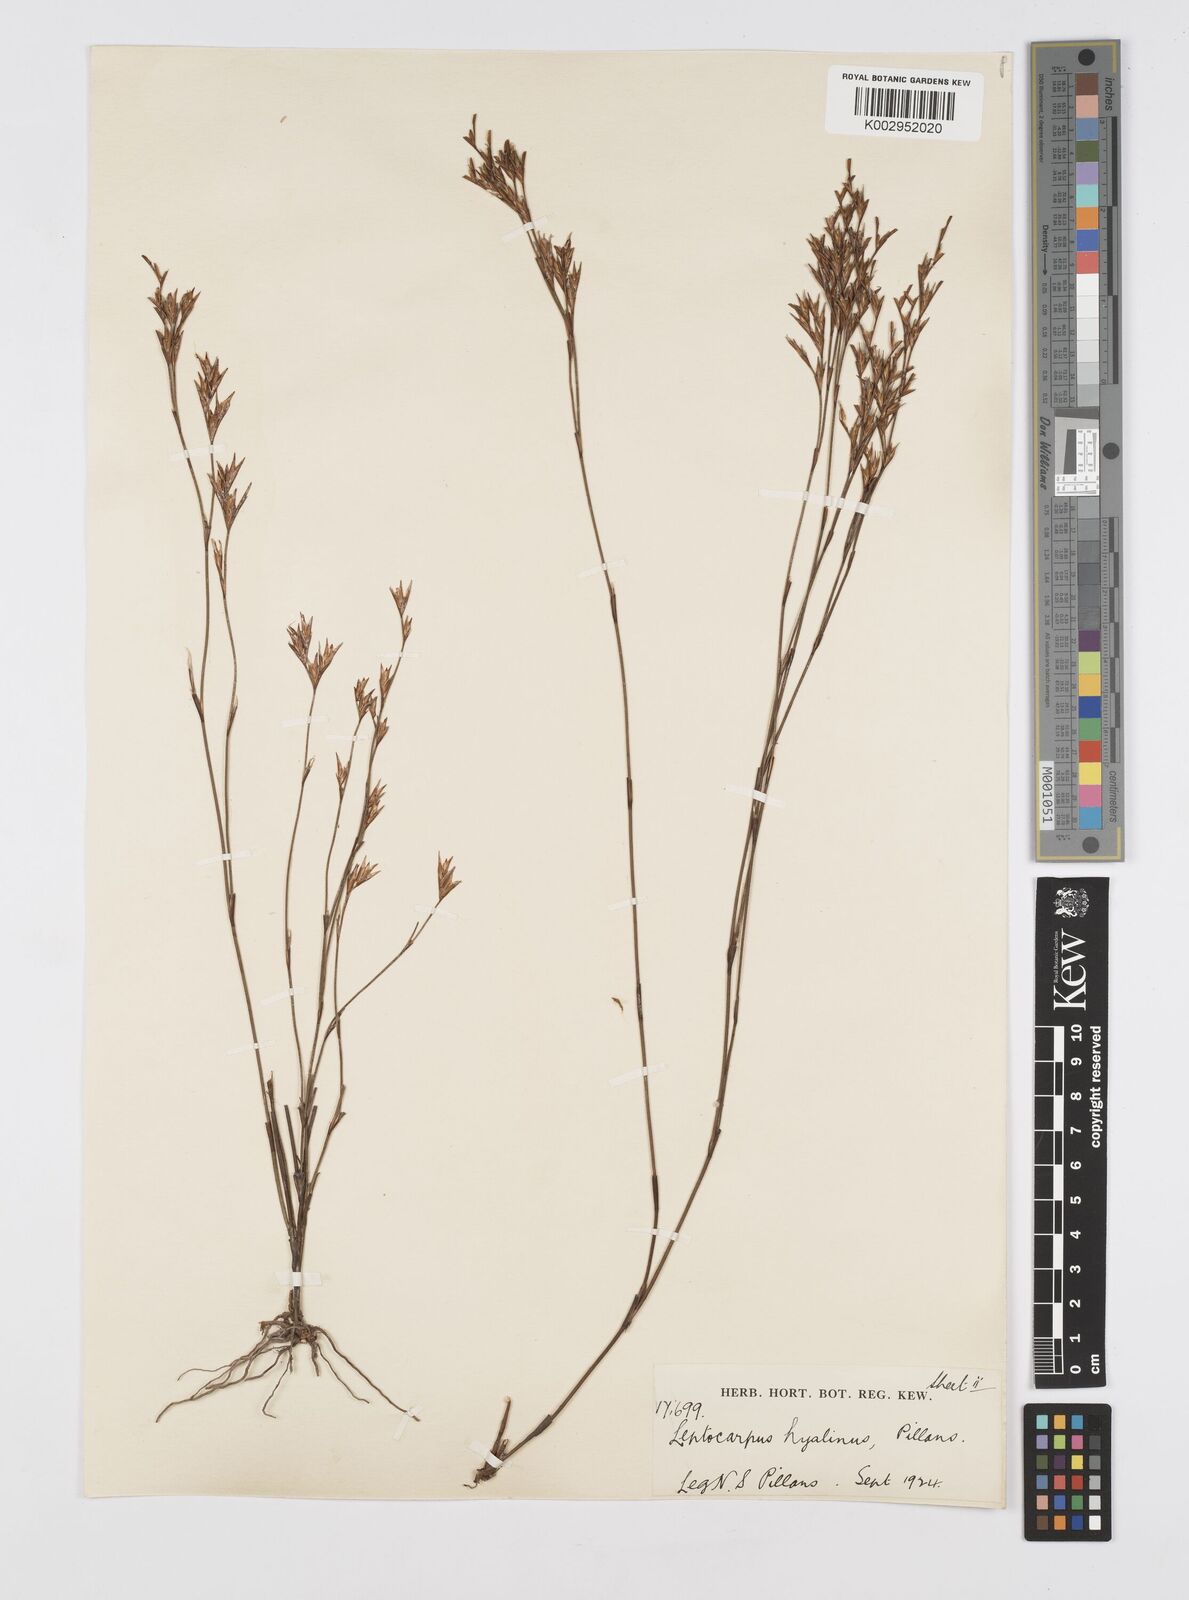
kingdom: Plantae
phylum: Tracheophyta
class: Liliopsida
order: Poales
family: Restionaceae
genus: Restio
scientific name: Restio hyalinus
